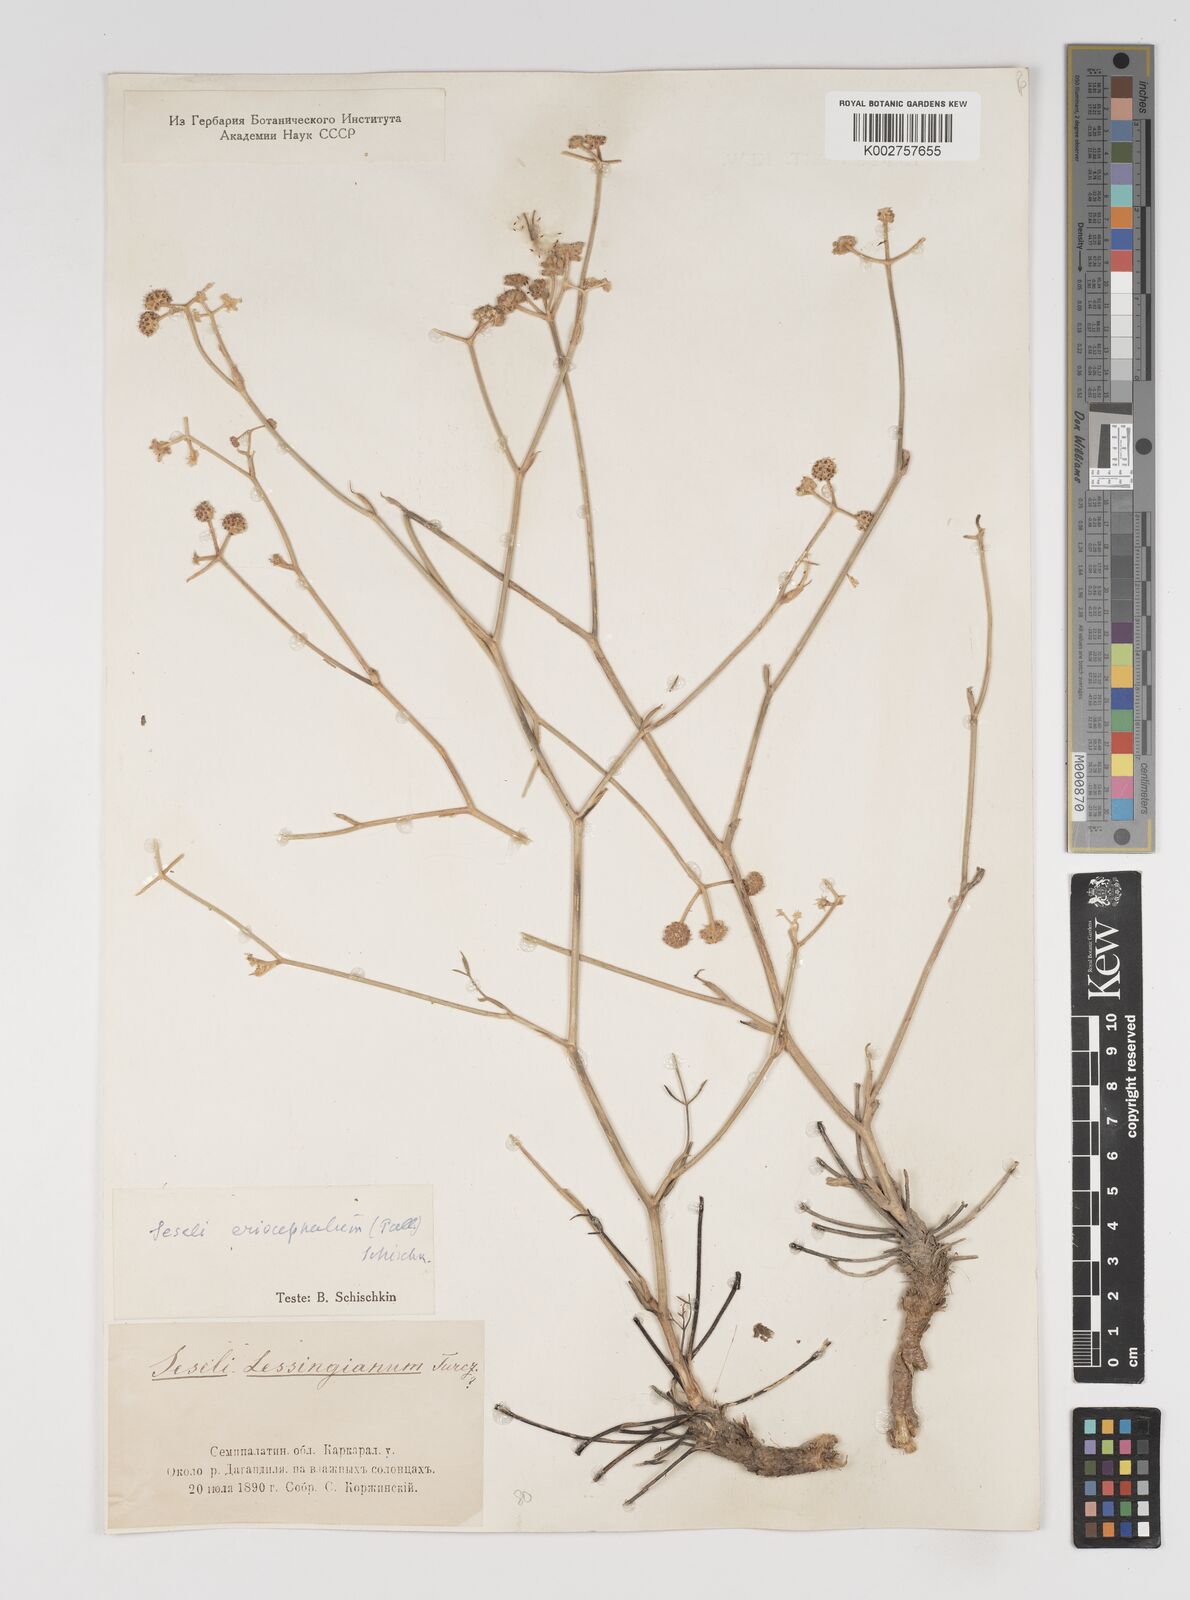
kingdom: Plantae
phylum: Tracheophyta
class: Magnoliopsida
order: Apiales
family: Apiaceae
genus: Seseli
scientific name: Seseli eriocephalum
